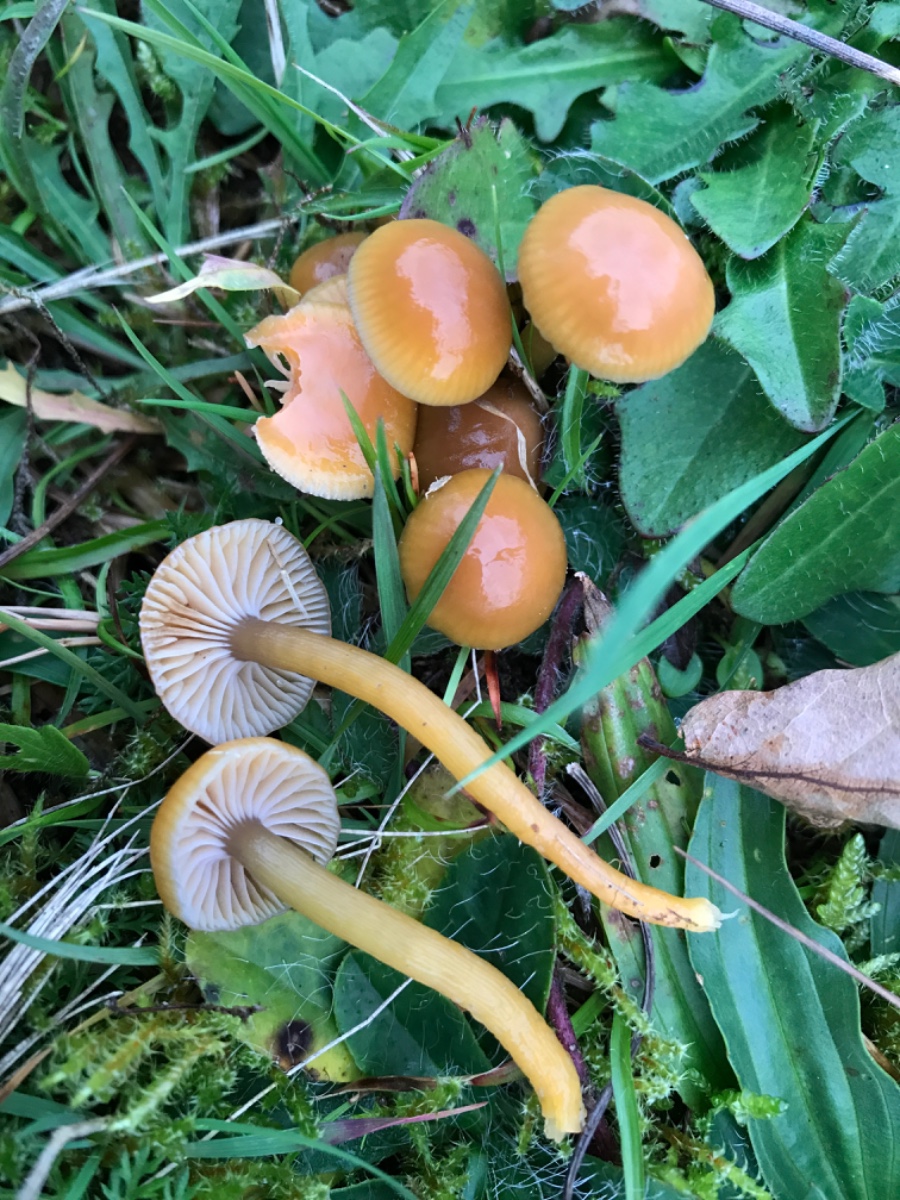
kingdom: Fungi
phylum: Basidiomycota
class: Agaricomycetes
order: Agaricales
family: Hygrophoraceae
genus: Gliophorus
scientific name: Gliophorus laetus
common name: brusk-vokshat
